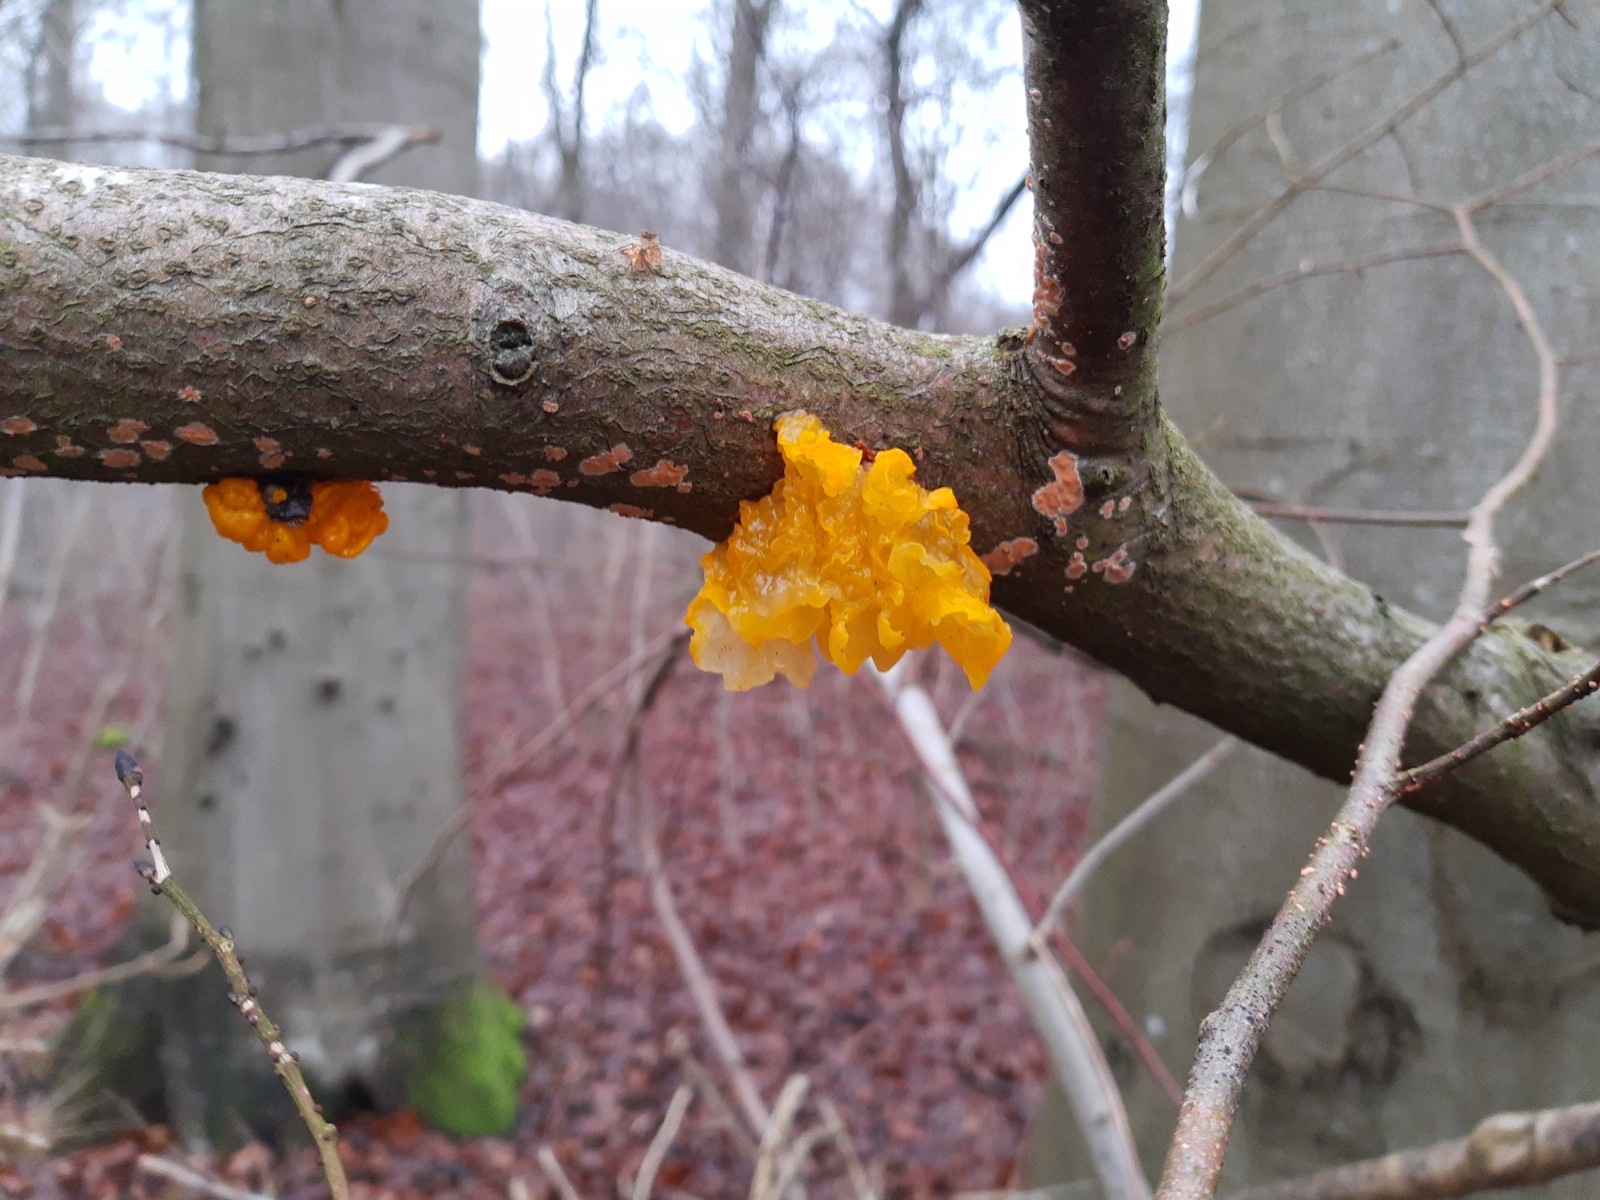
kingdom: Fungi
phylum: Basidiomycota
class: Tremellomycetes
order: Tremellales
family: Tremellaceae
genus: Tremella
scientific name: Tremella mesenterica
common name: gul bævresvamp
